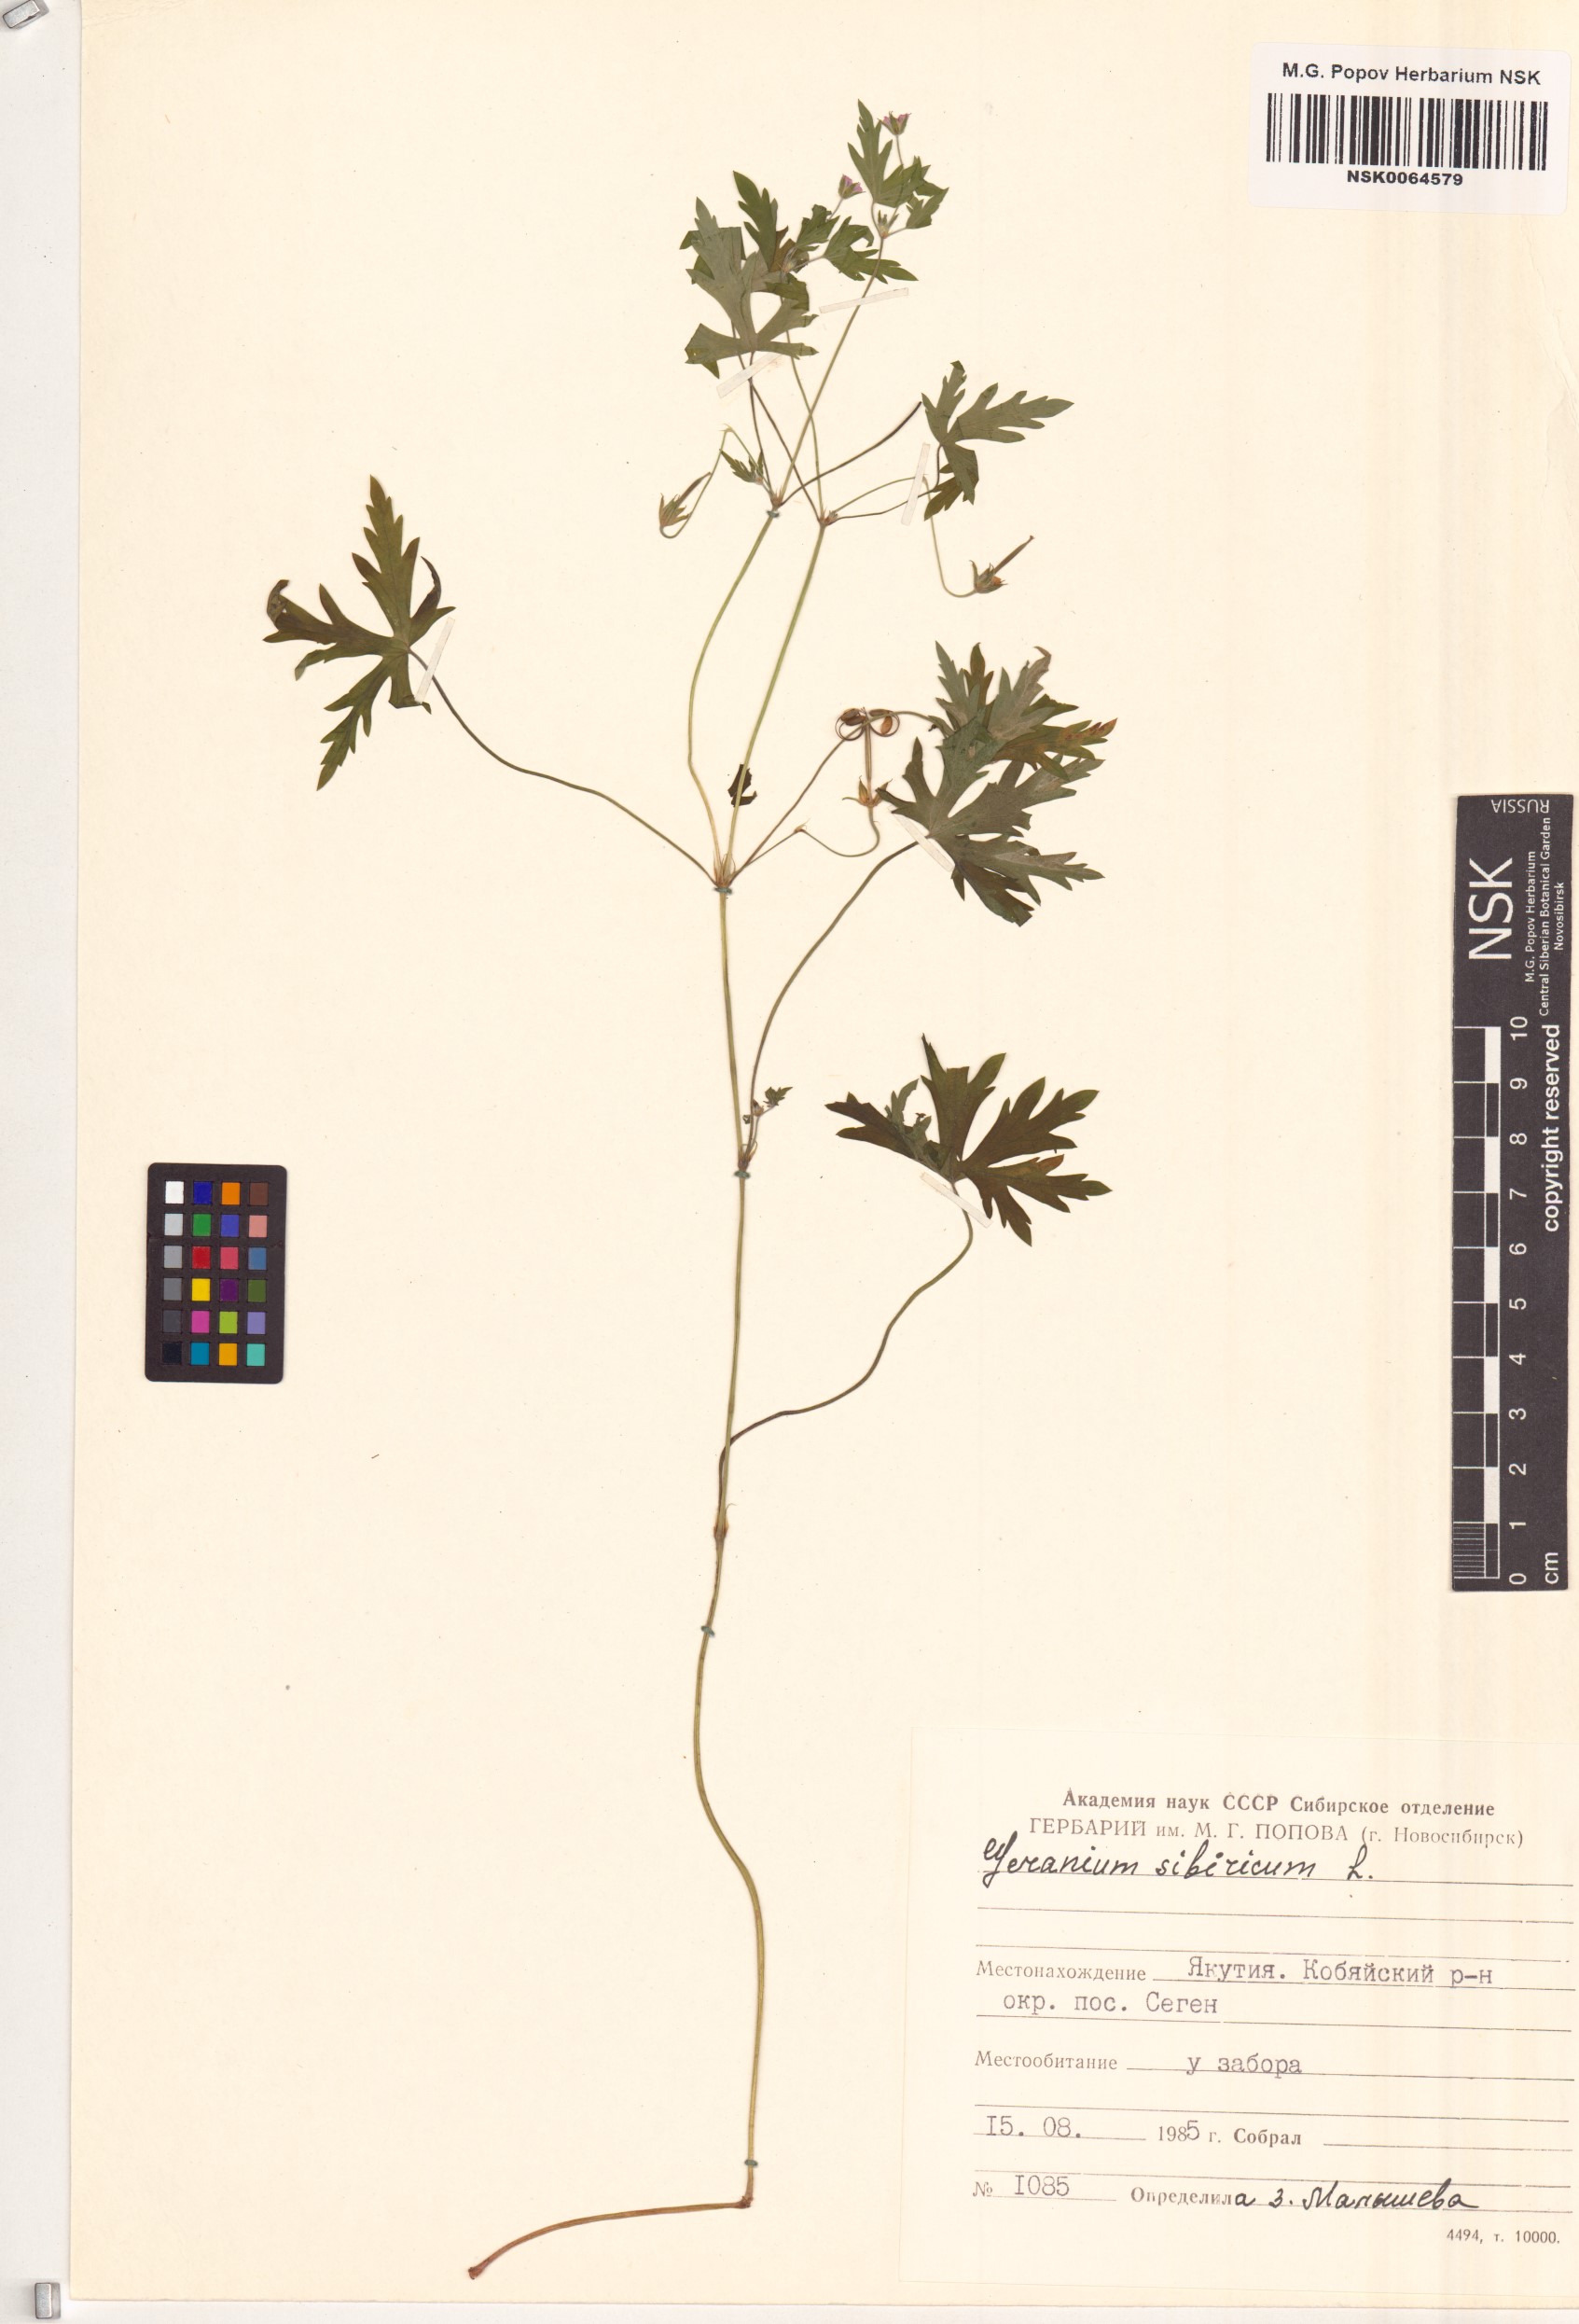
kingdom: Plantae
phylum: Tracheophyta
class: Magnoliopsida
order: Geraniales
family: Geraniaceae
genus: Geranium
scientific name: Geranium sibiricum
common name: Siberian crane's-bill
